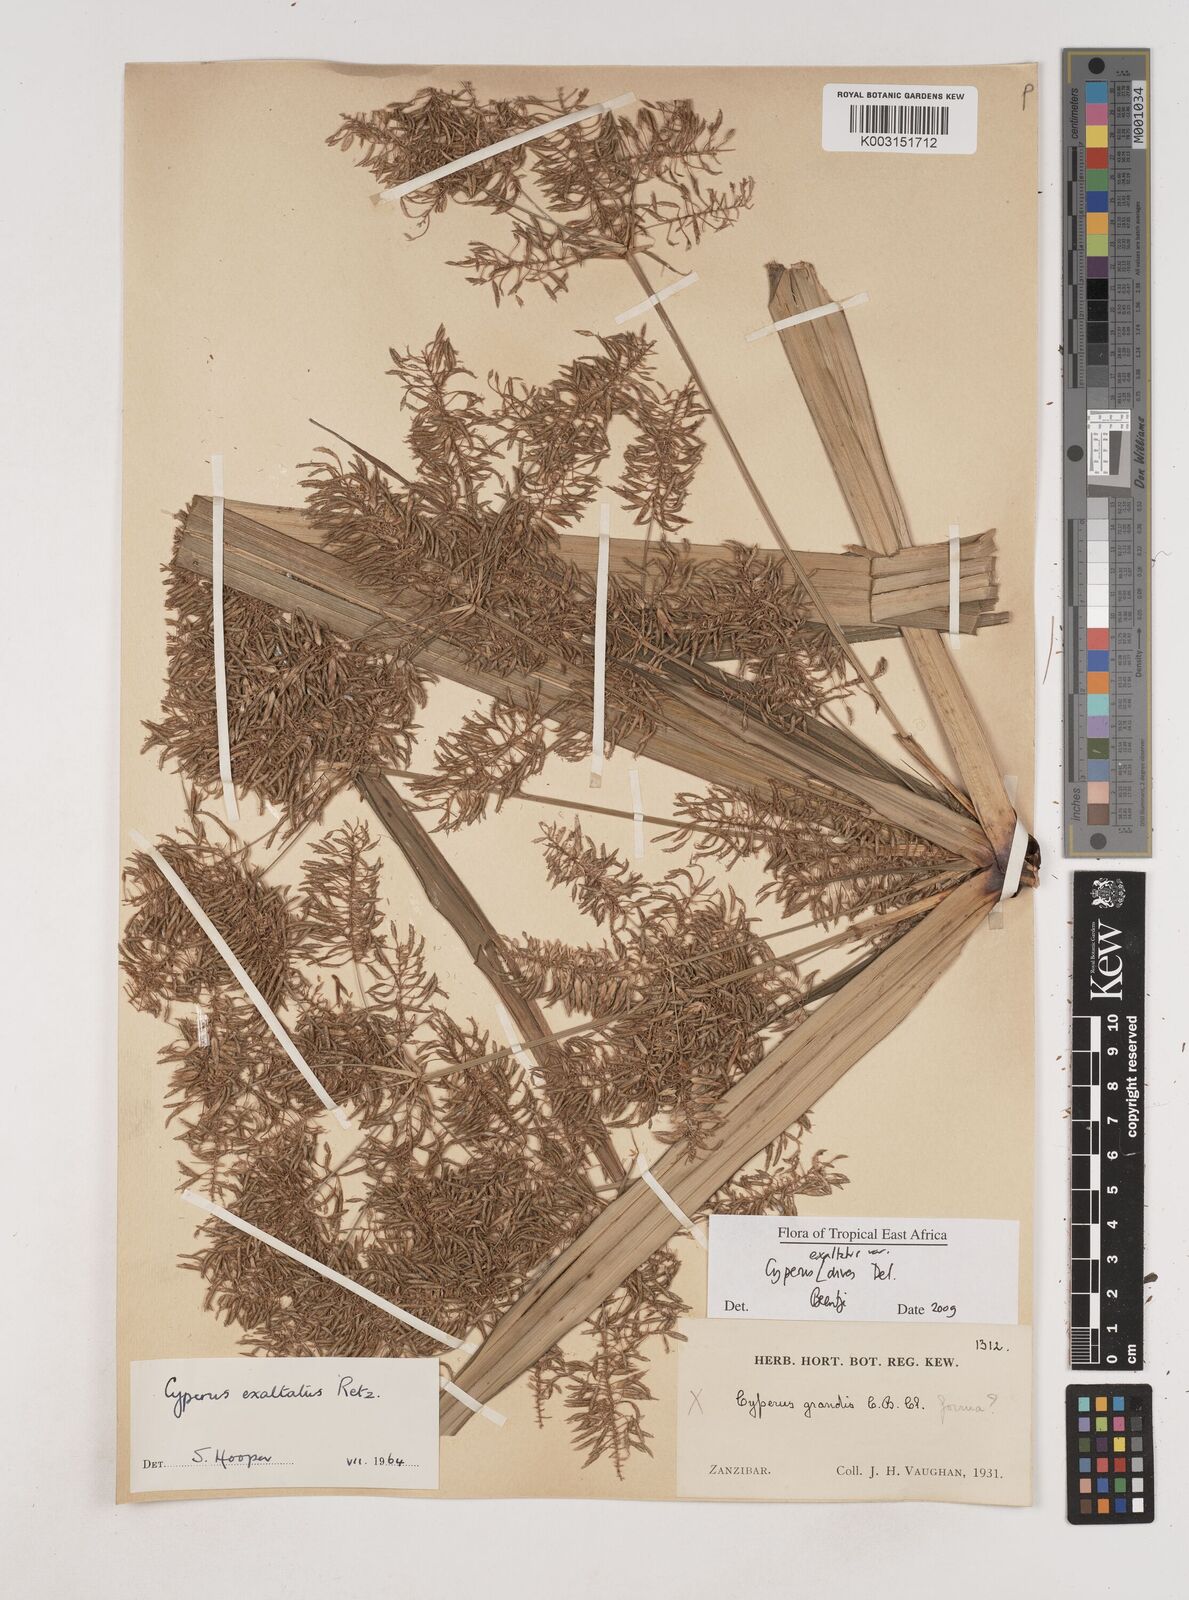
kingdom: Plantae
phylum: Tracheophyta
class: Liliopsida
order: Poales
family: Cyperaceae
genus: Cyperus
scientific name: Cyperus exaltatus
